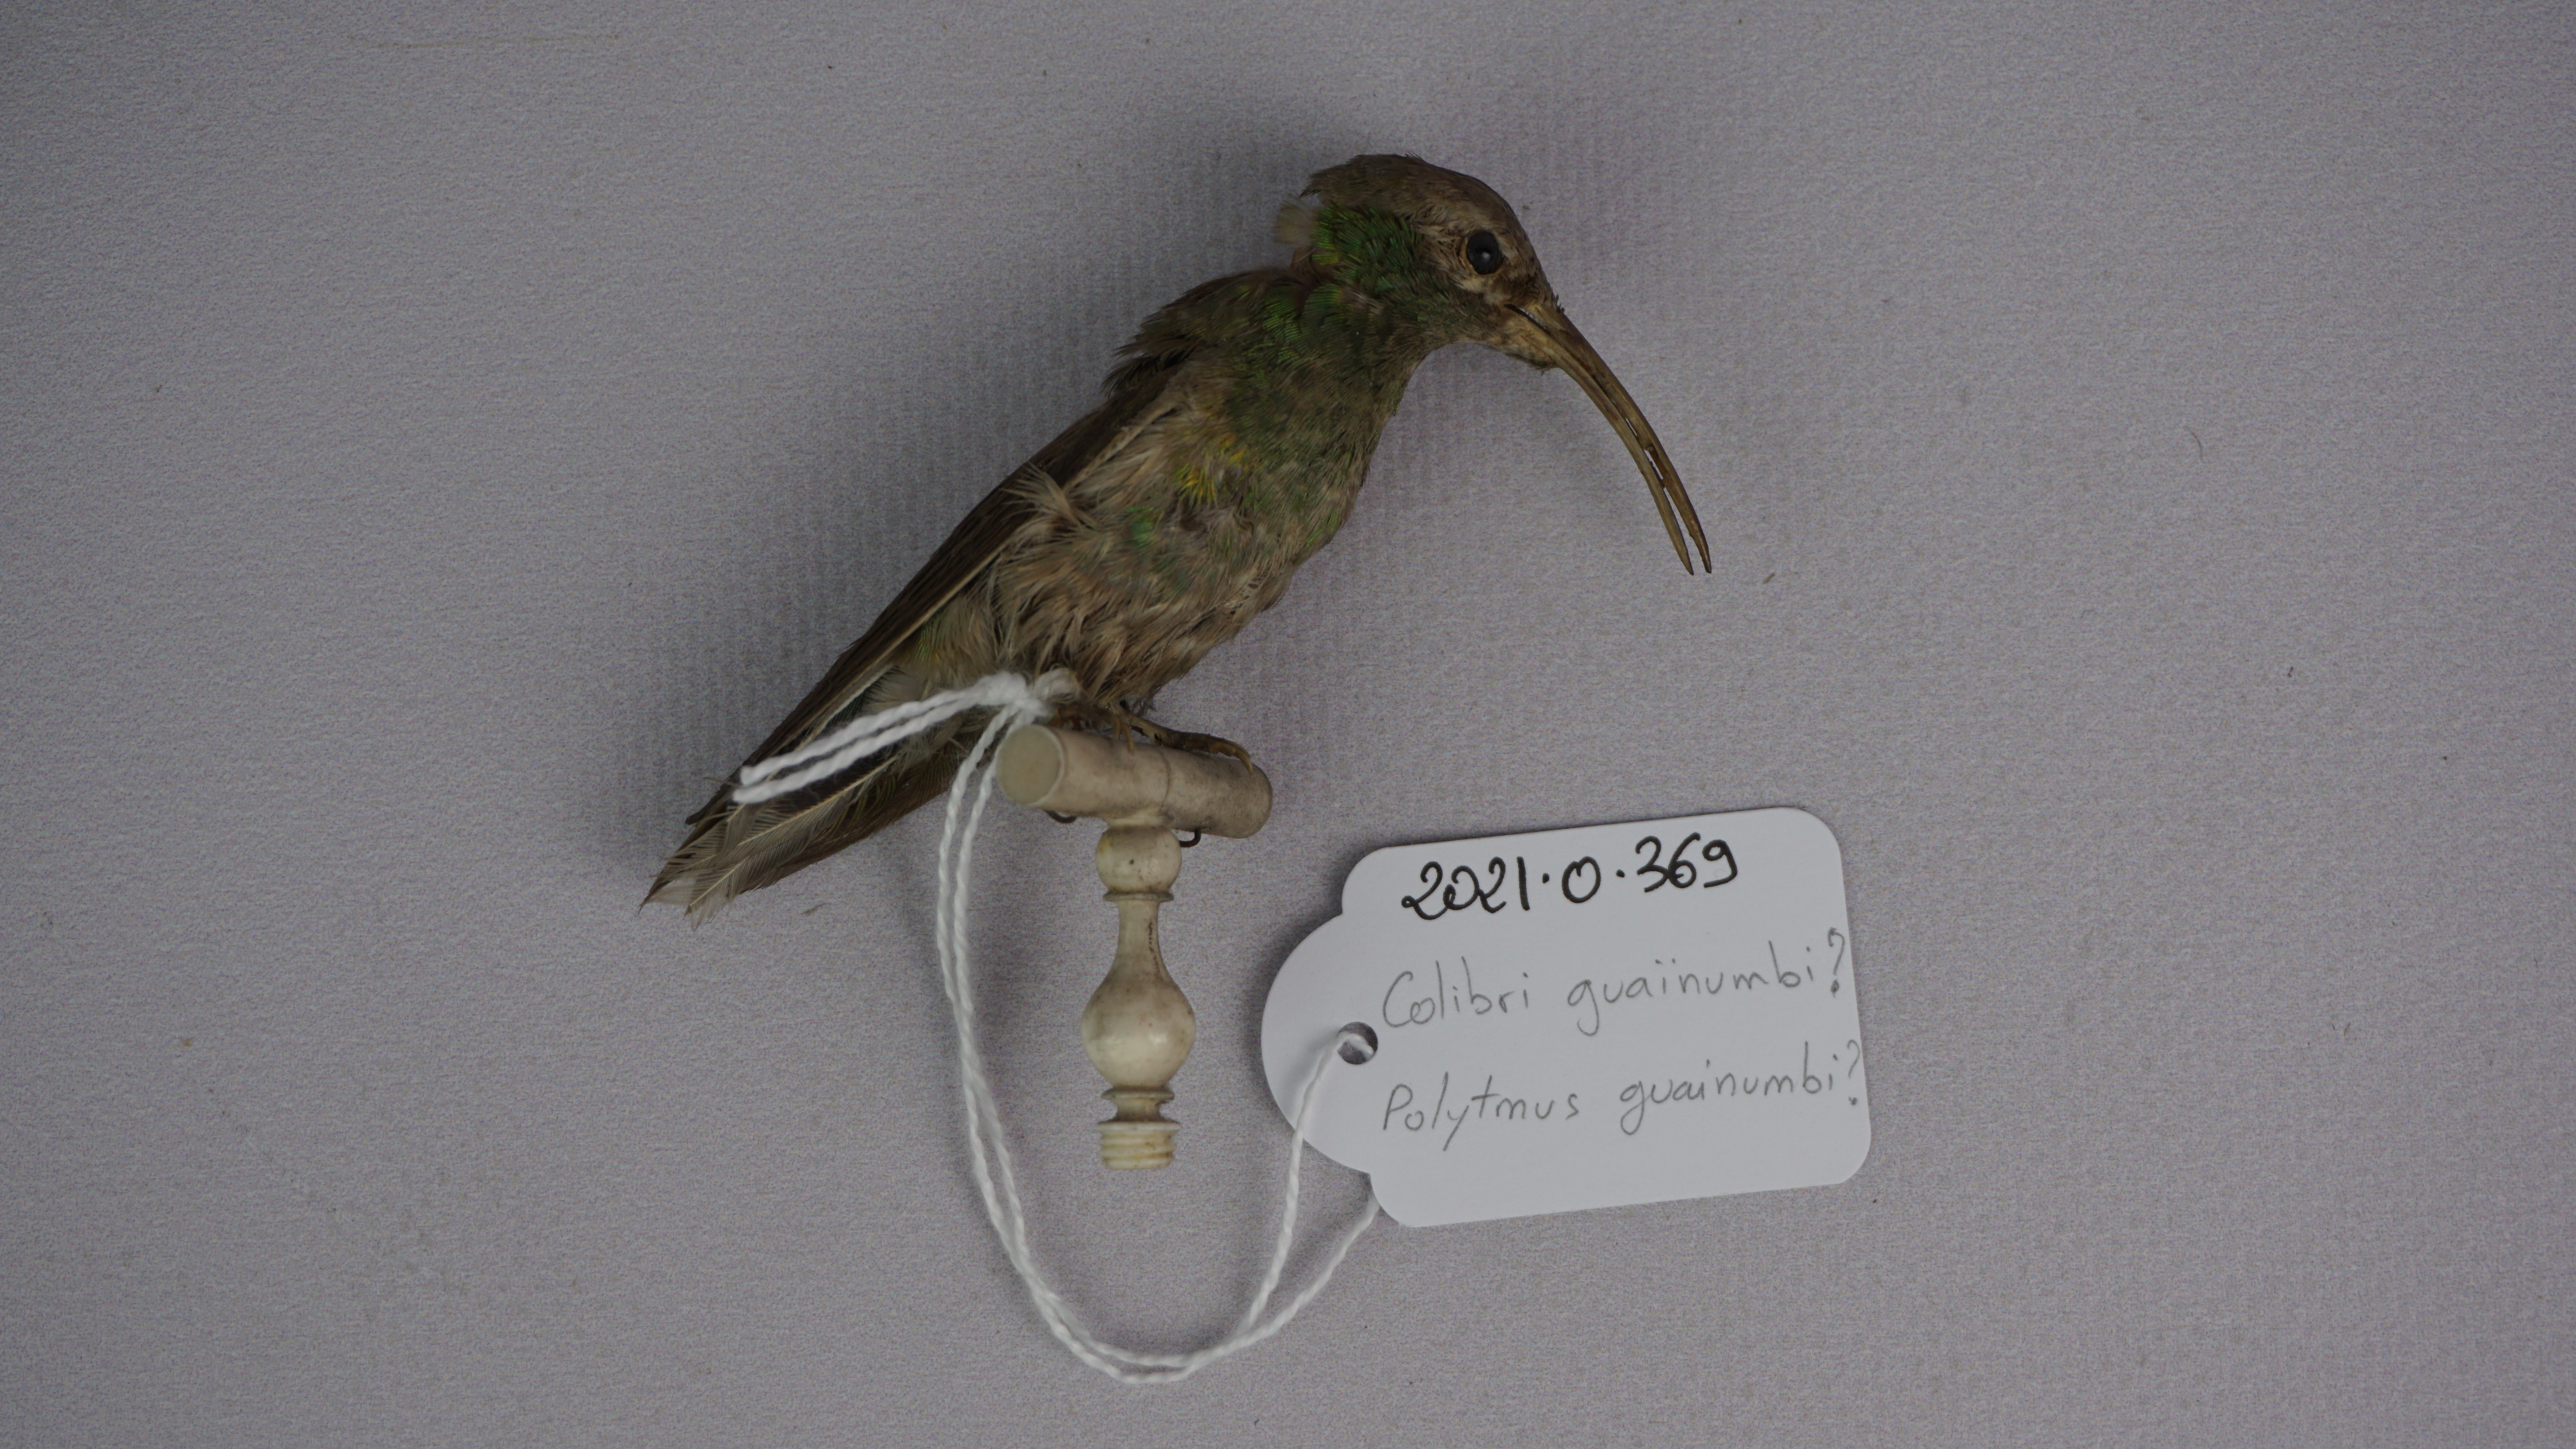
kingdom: Animalia
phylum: Chordata
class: Aves
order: Apodiformes
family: Trochilidae
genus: Polytmus
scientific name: Polytmus guainumbi
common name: White-tailed goldenthroat
